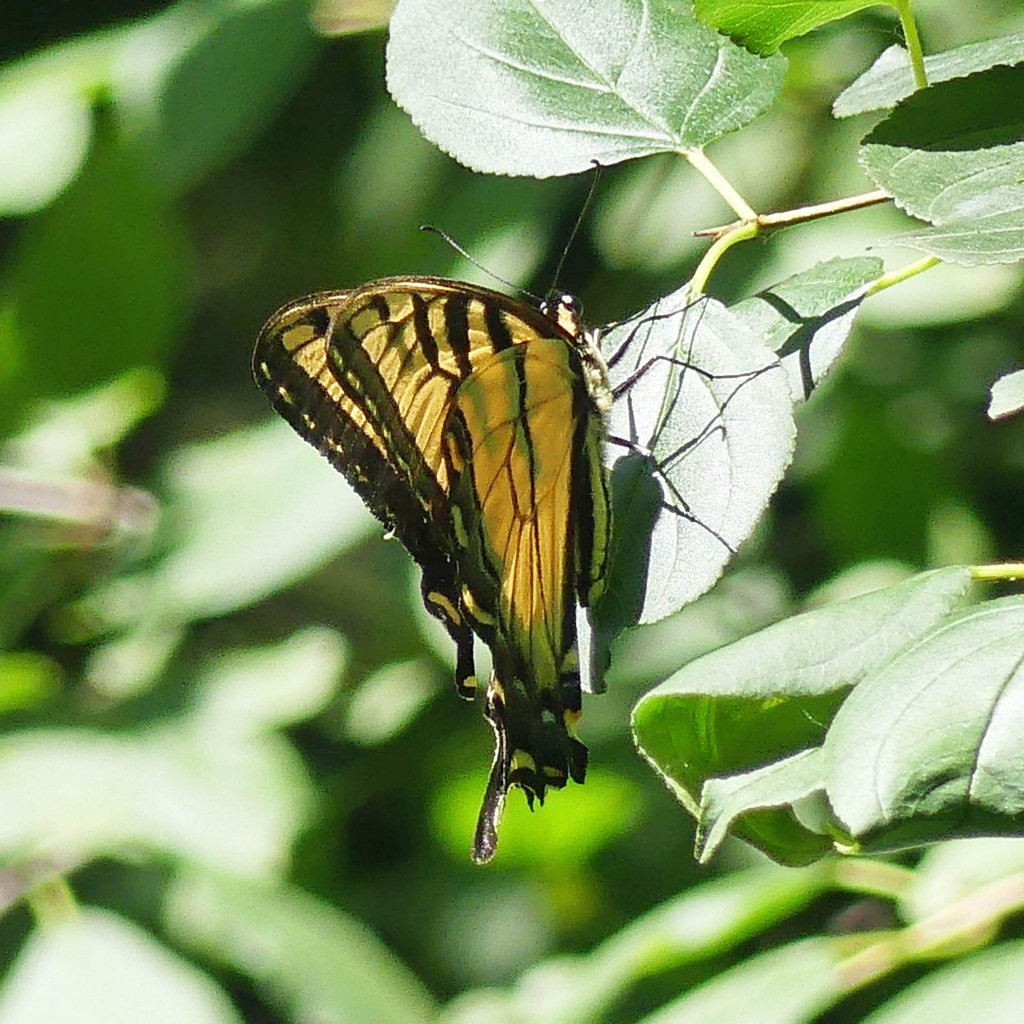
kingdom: Animalia
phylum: Arthropoda
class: Insecta
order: Lepidoptera
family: Papilionidae
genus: Pterourus
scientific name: Pterourus glaucus
